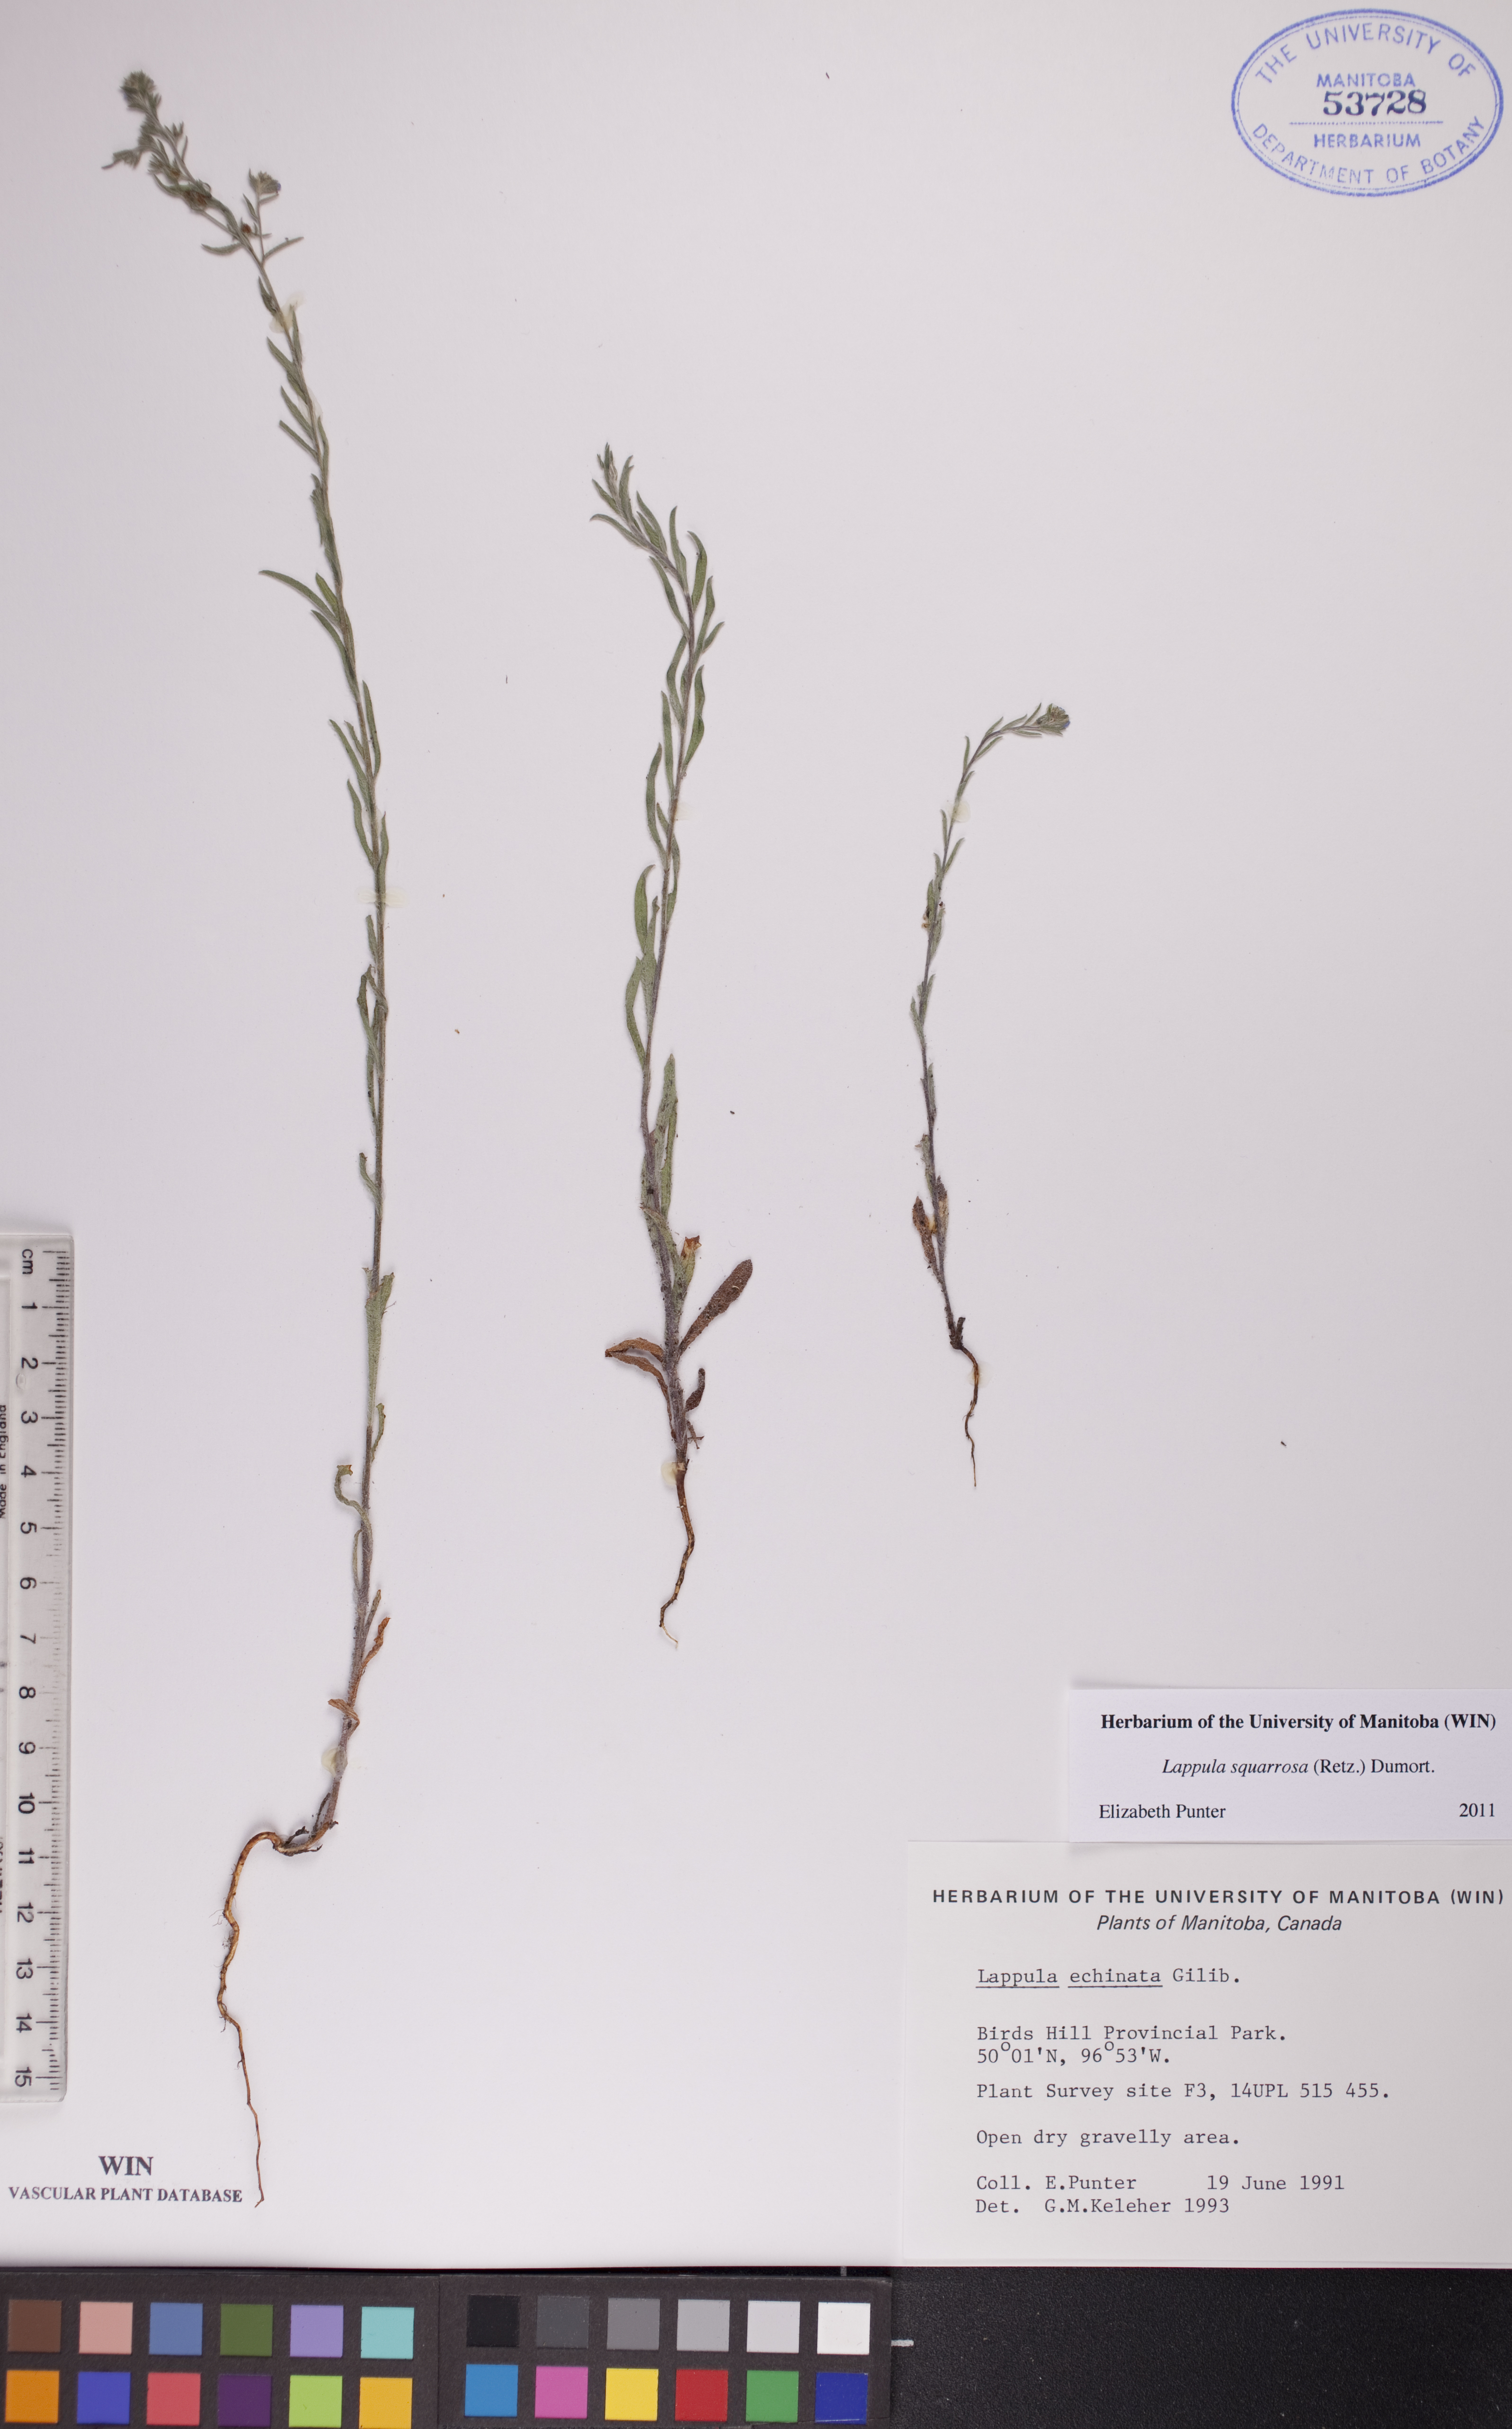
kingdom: Plantae
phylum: Tracheophyta
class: Magnoliopsida
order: Boraginales
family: Boraginaceae
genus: Lappula
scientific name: Lappula squarrosa
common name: European stickseed
